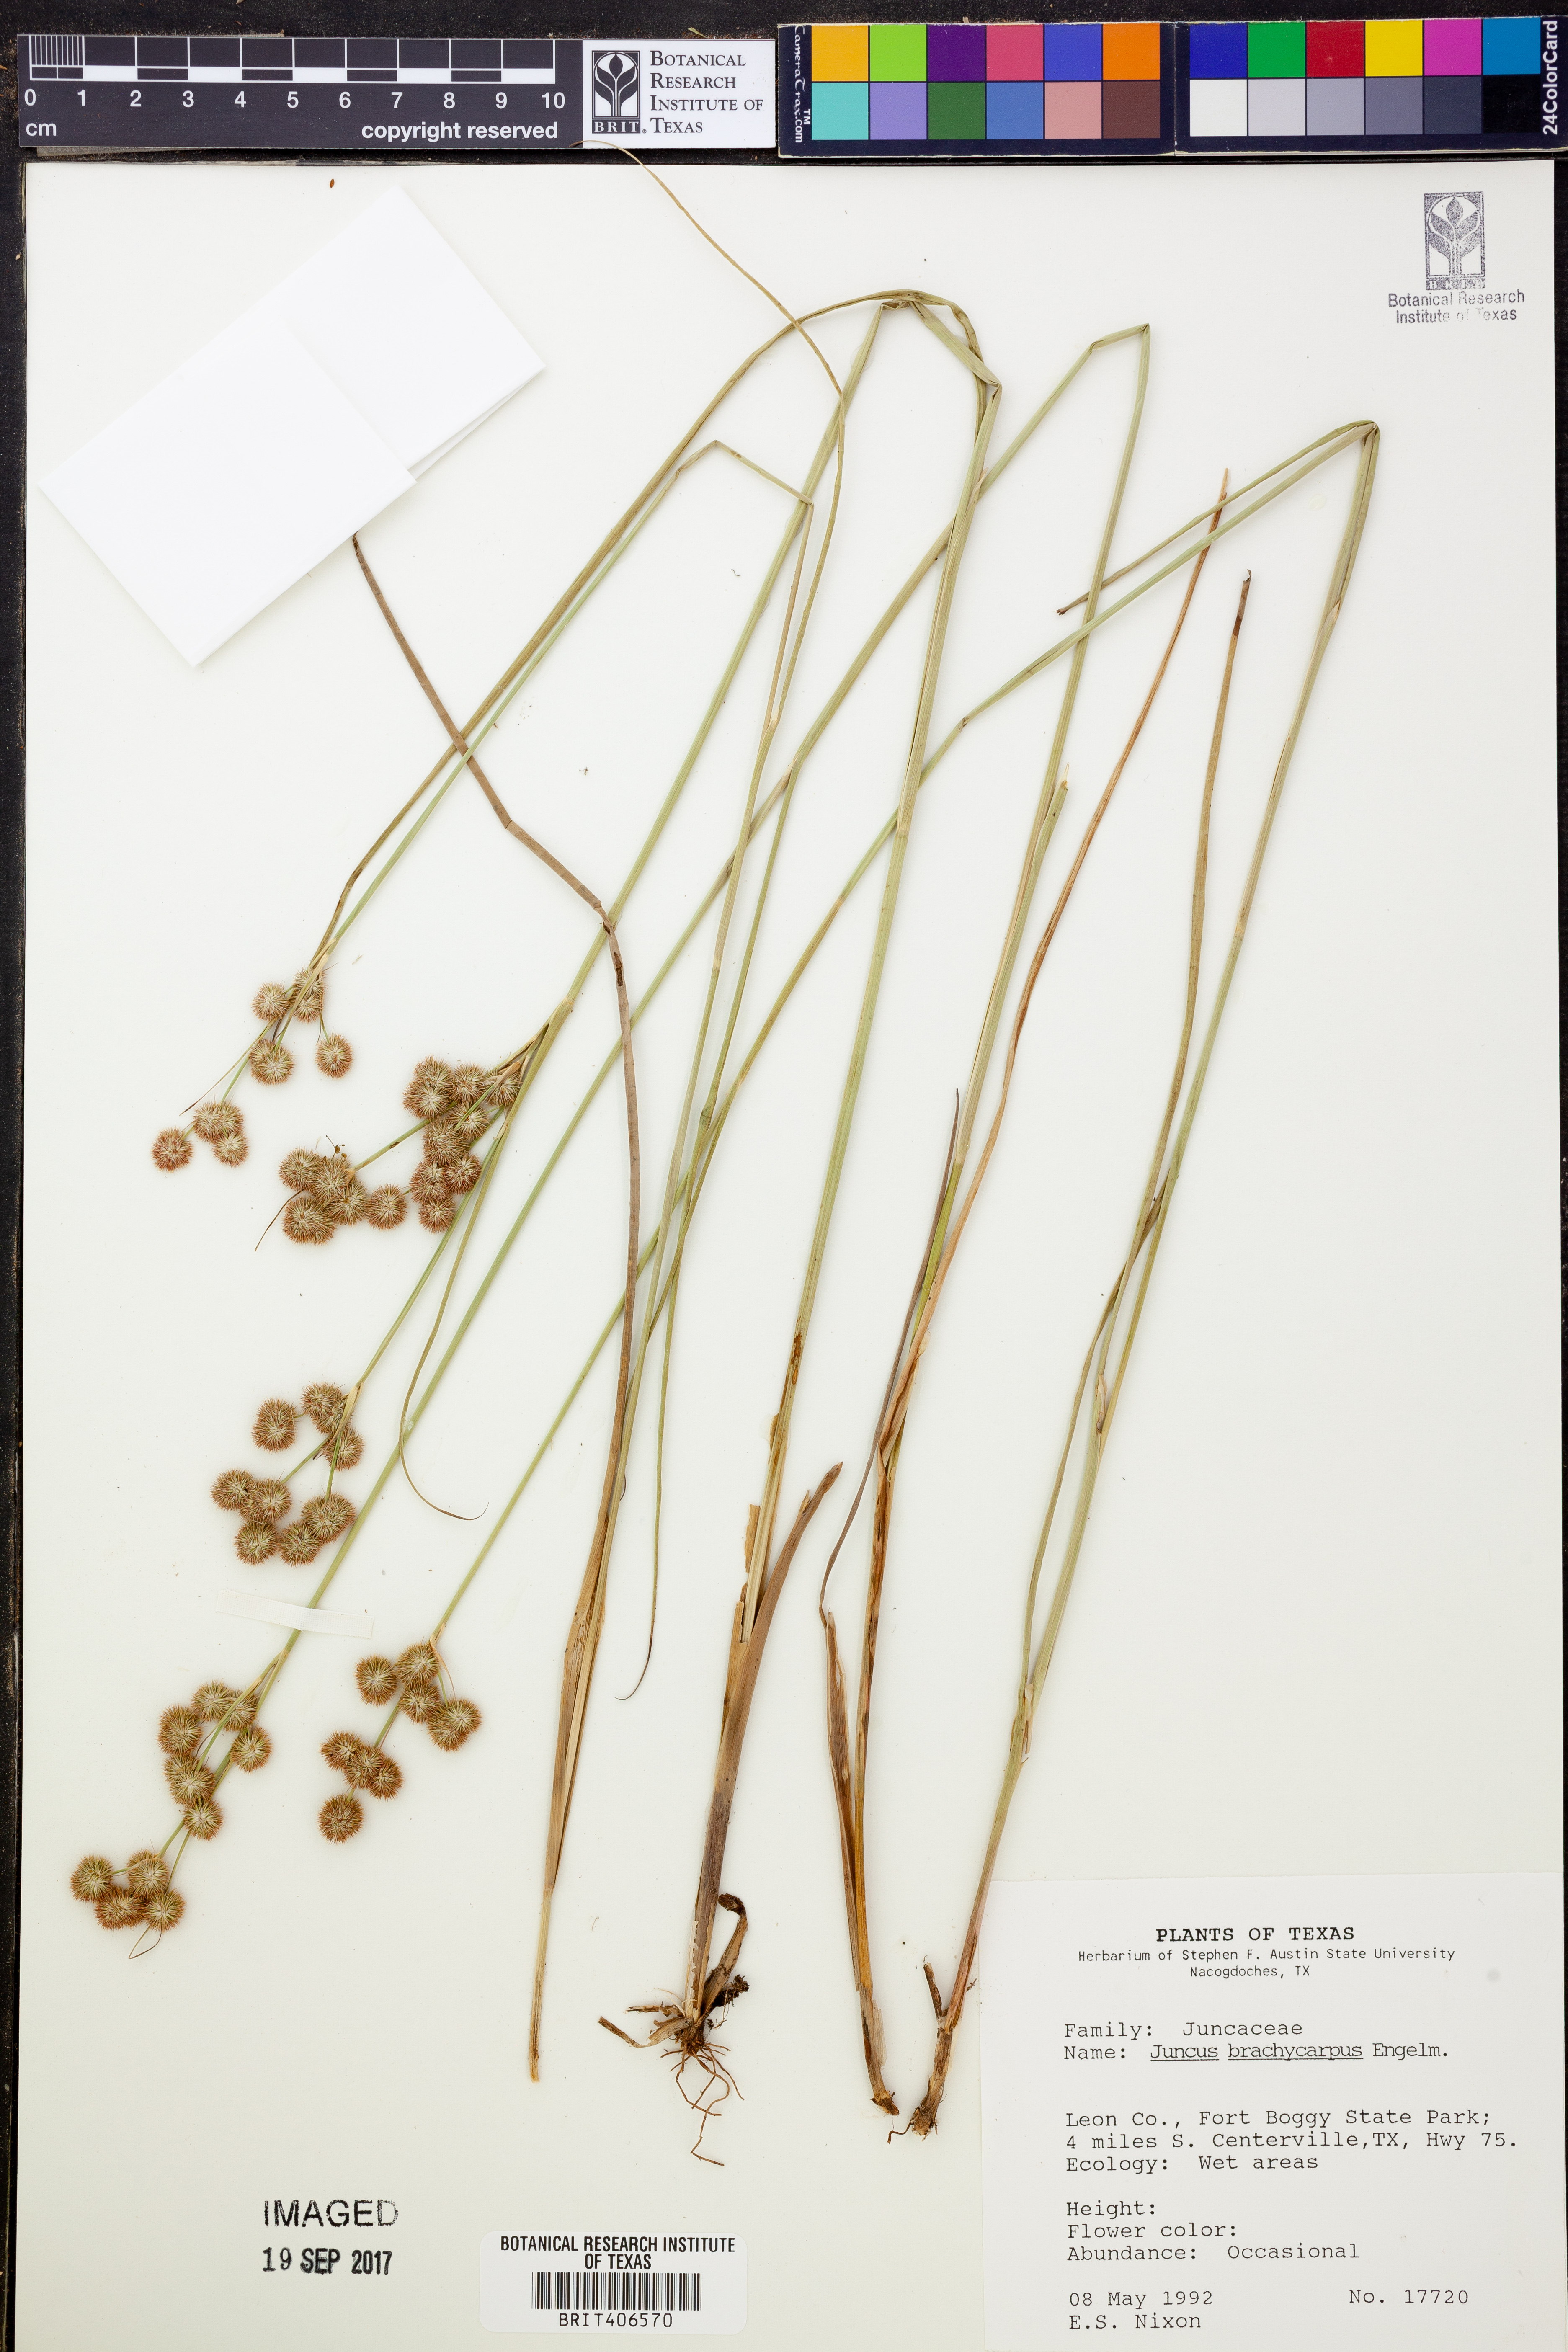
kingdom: Plantae
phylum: Tracheophyta
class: Liliopsida
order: Poales
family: Juncaceae
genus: Juncus
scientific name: Juncus brachycarpus
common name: Shore rush
